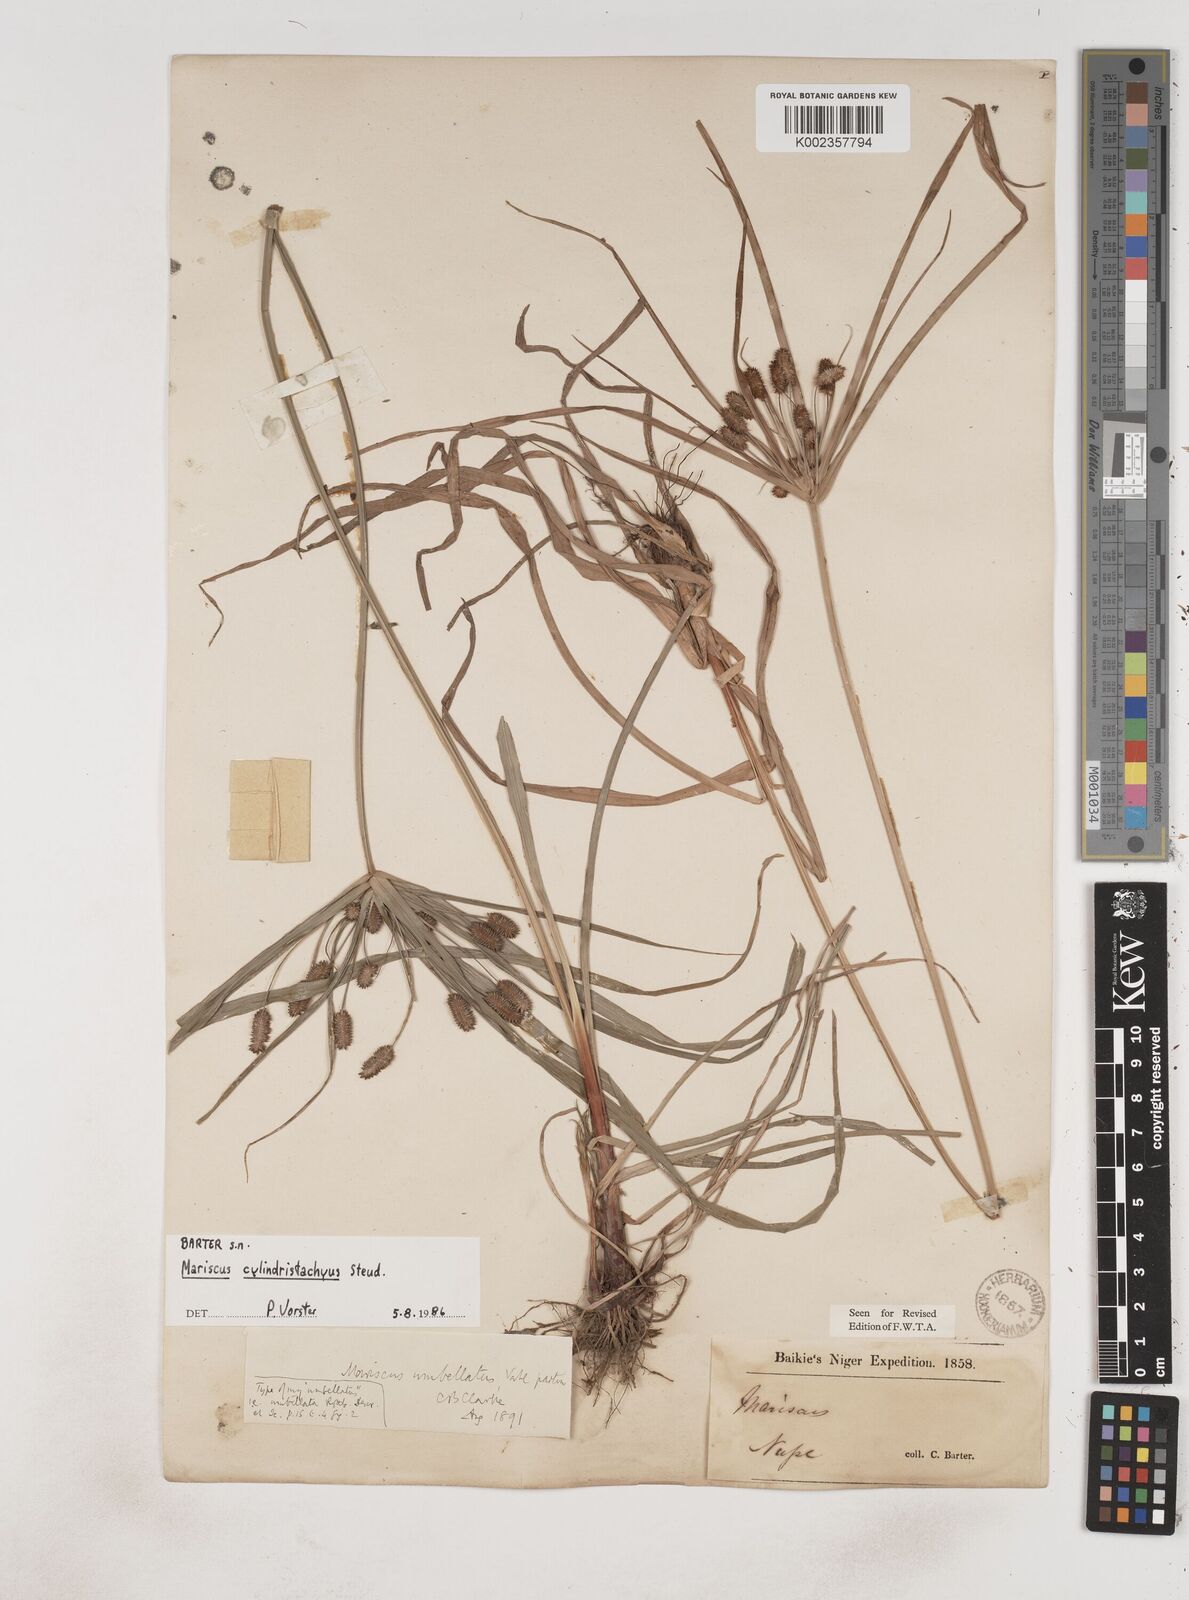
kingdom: Plantae
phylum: Tracheophyta
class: Liliopsida
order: Poales
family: Cyperaceae
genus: Cyperus
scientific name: Cyperus sublimis
